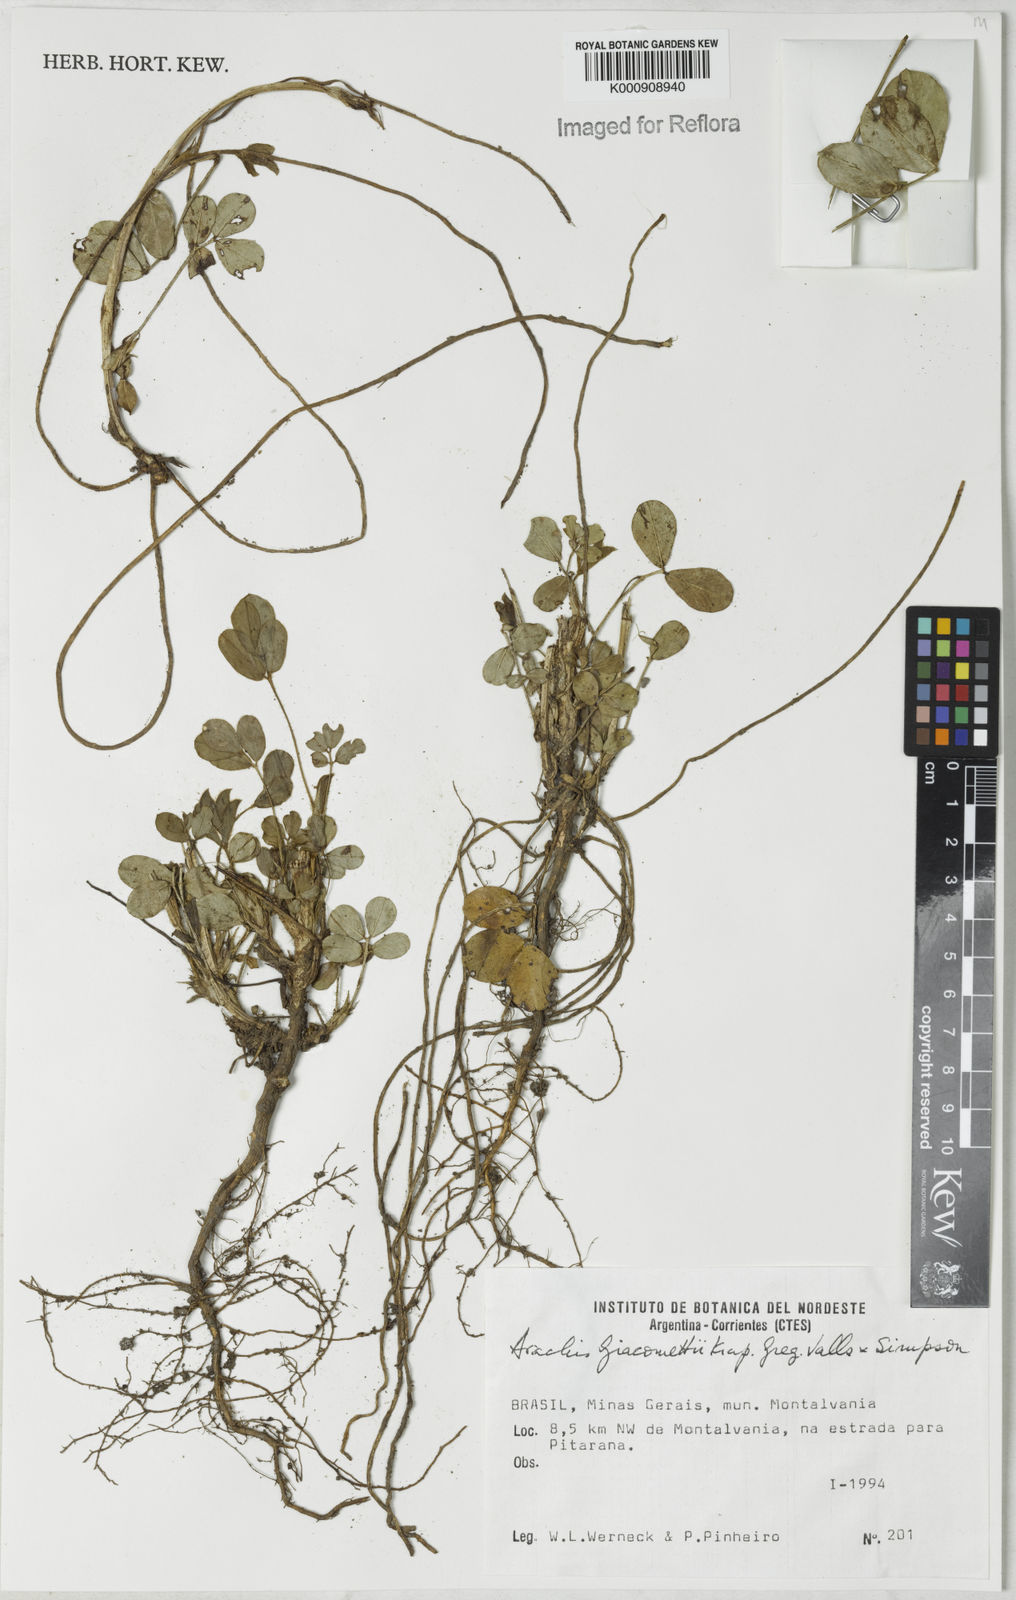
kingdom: Plantae
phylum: Tracheophyta
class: Magnoliopsida
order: Fabales
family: Fabaceae
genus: Arachis
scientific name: Arachis
